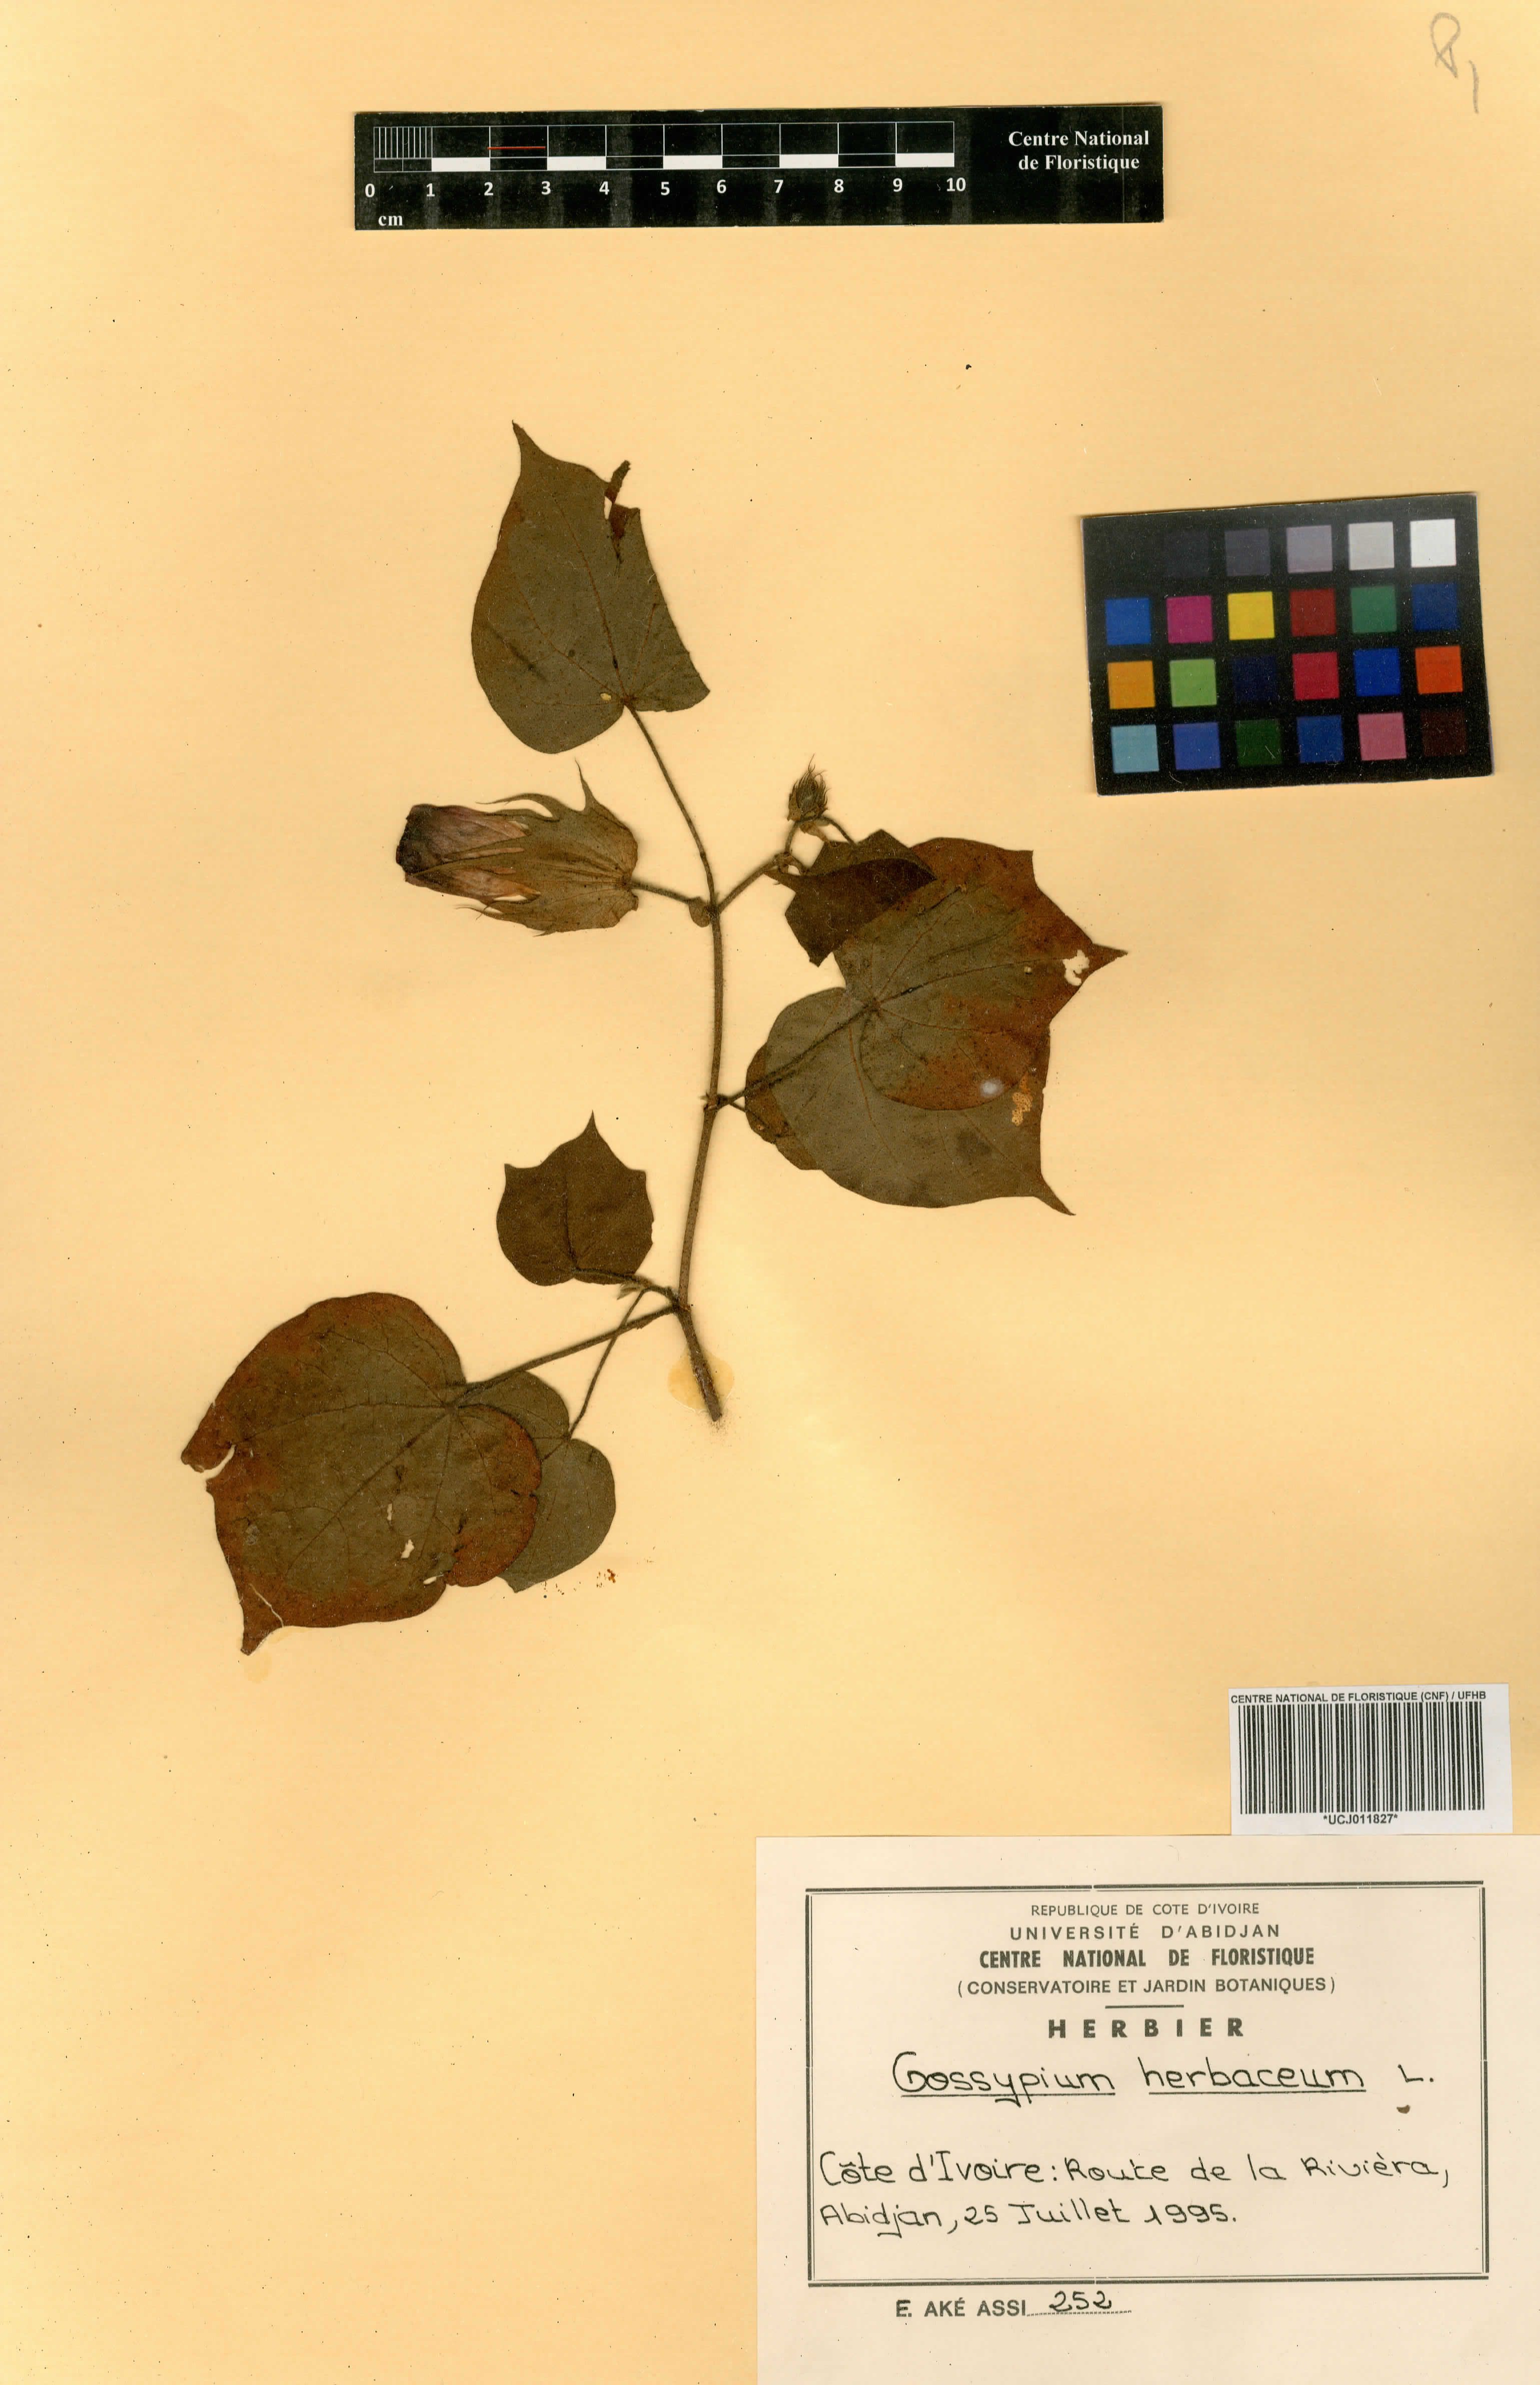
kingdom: Plantae
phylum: Tracheophyta
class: Magnoliopsida
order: Malvales
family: Malvaceae
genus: Gossypium
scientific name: Gossypium herbaceum
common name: Levant cotton
